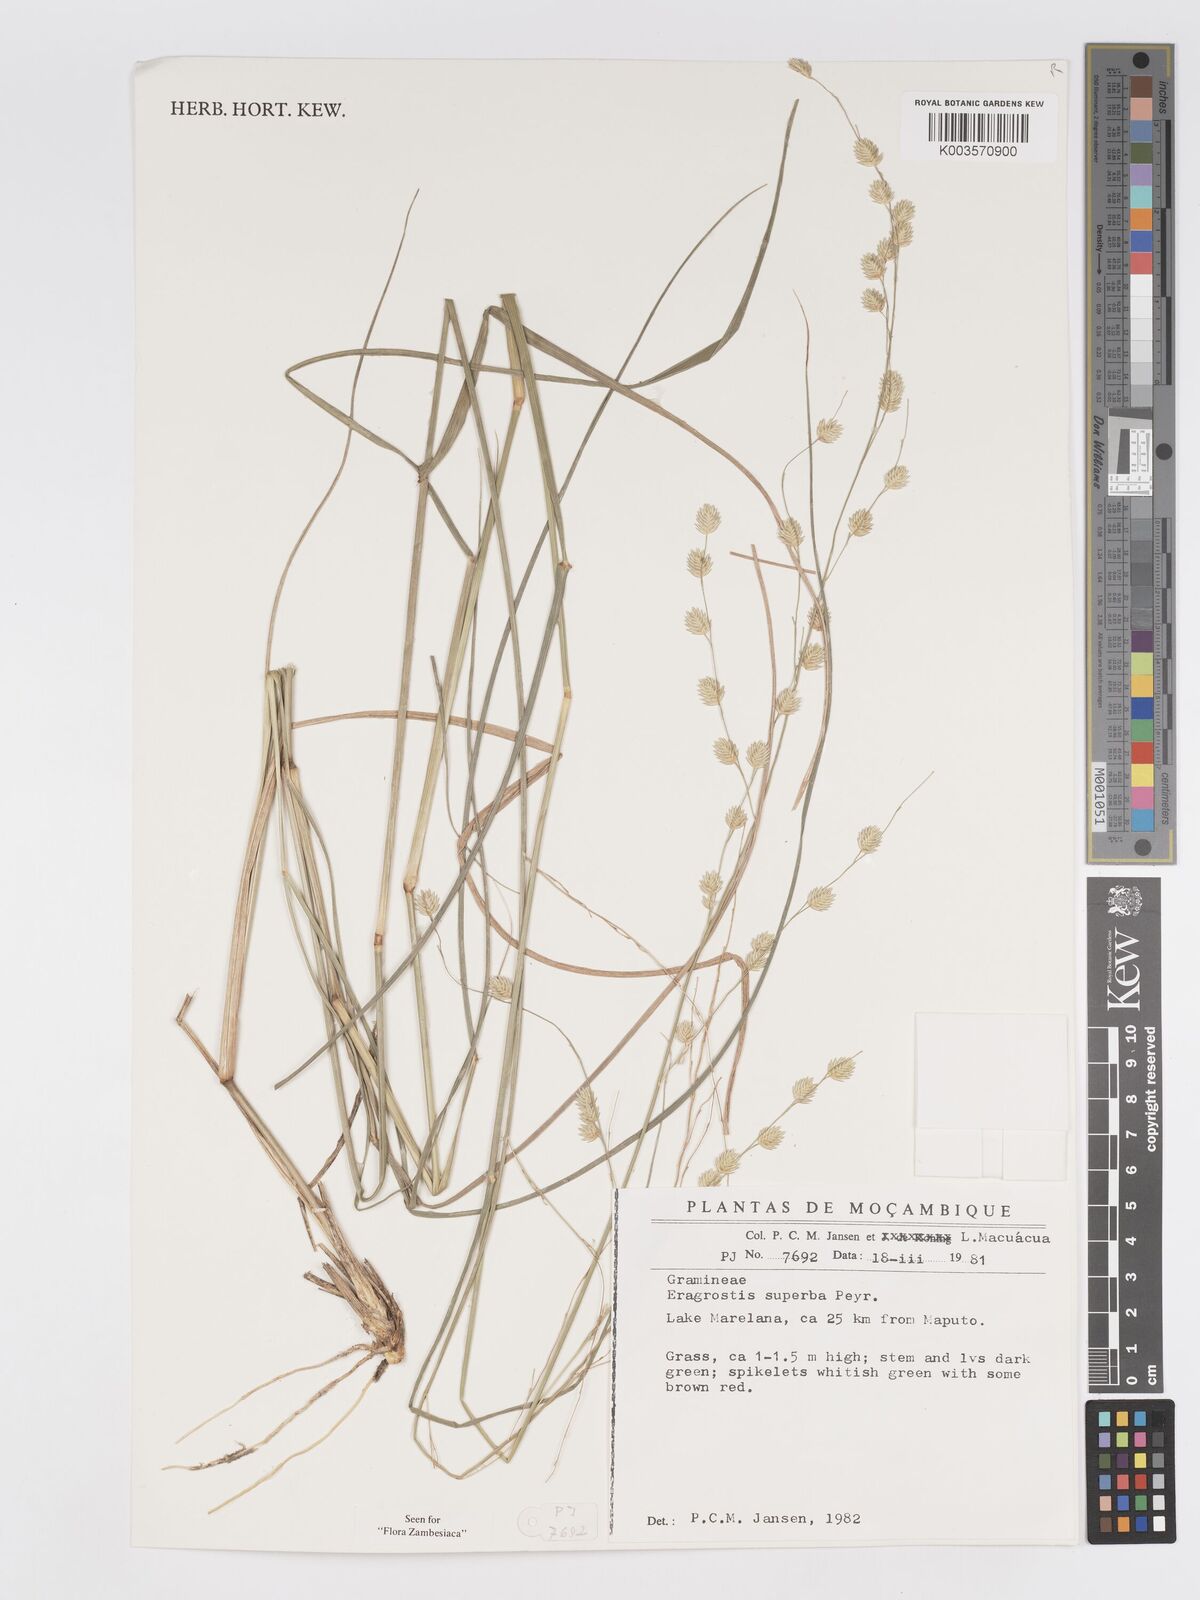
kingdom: Plantae
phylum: Tracheophyta
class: Liliopsida
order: Poales
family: Poaceae
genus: Eragrostis
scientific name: Eragrostis superba
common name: Wilman lovegrass
